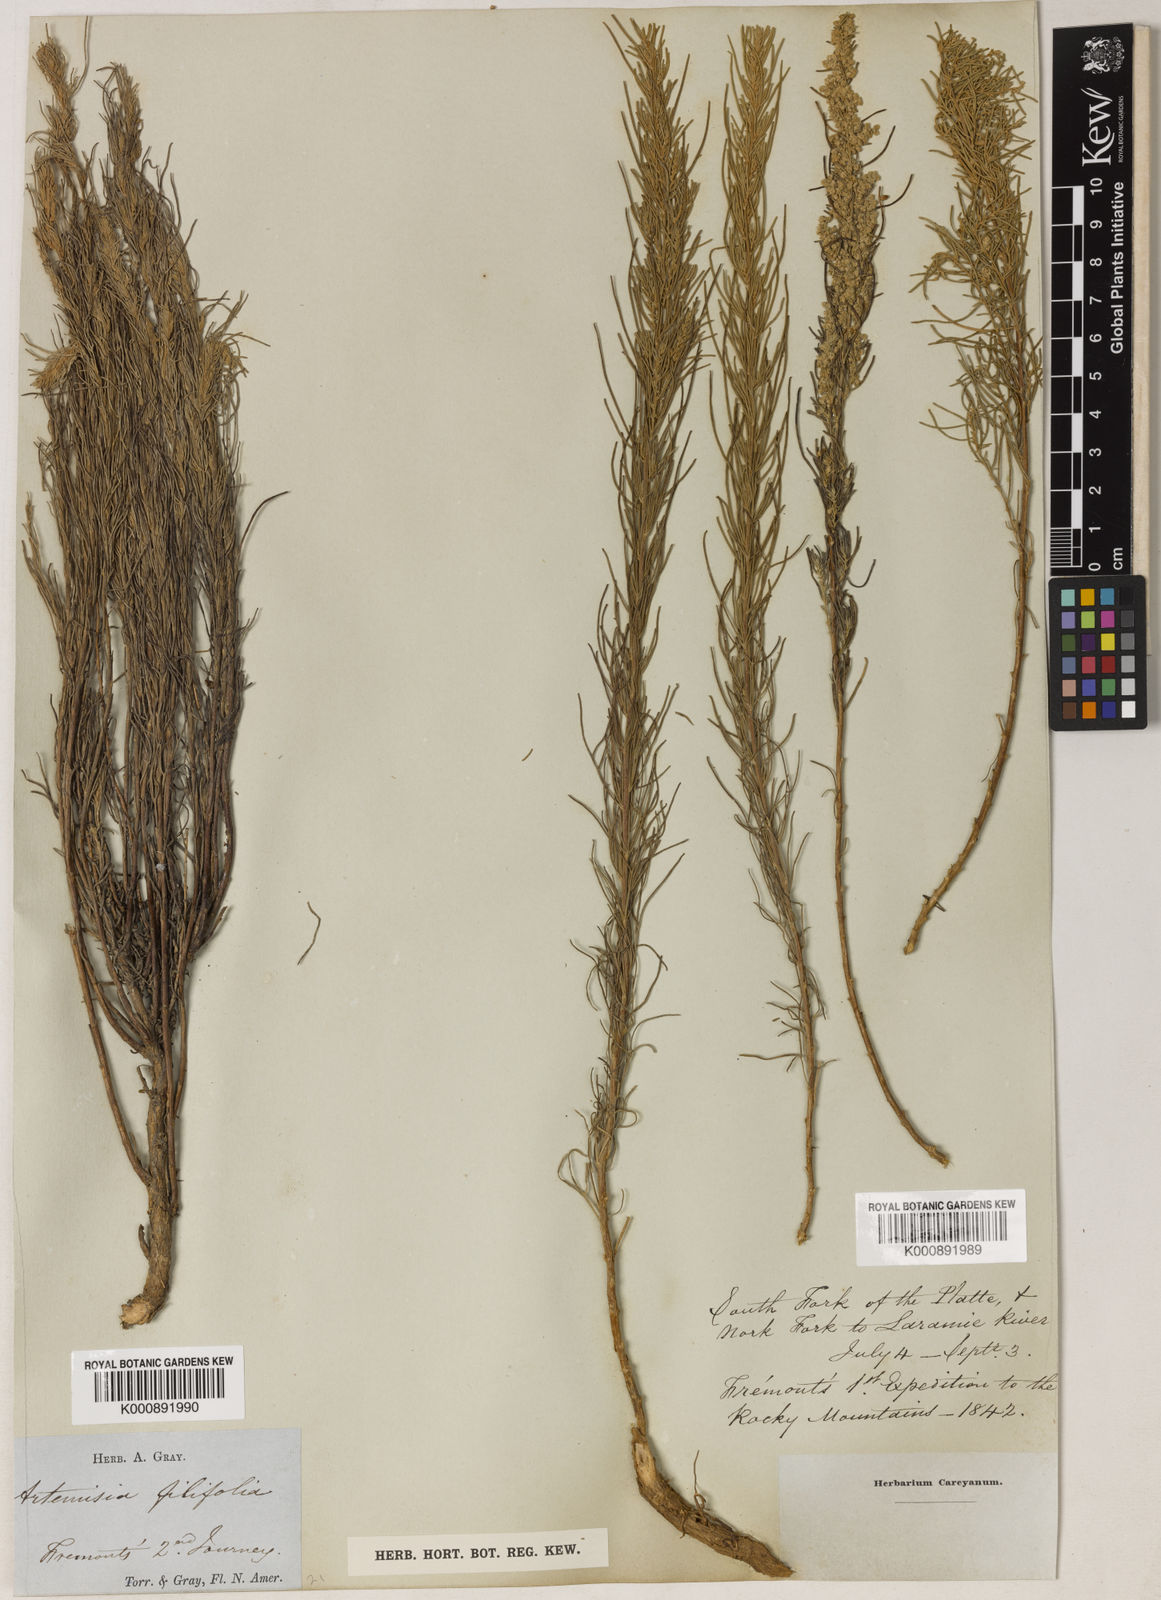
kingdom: Plantae
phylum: Tracheophyta
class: Magnoliopsida
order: Asterales
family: Asteraceae
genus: Artemisia
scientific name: Artemisia filifolia
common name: Sand-sage
